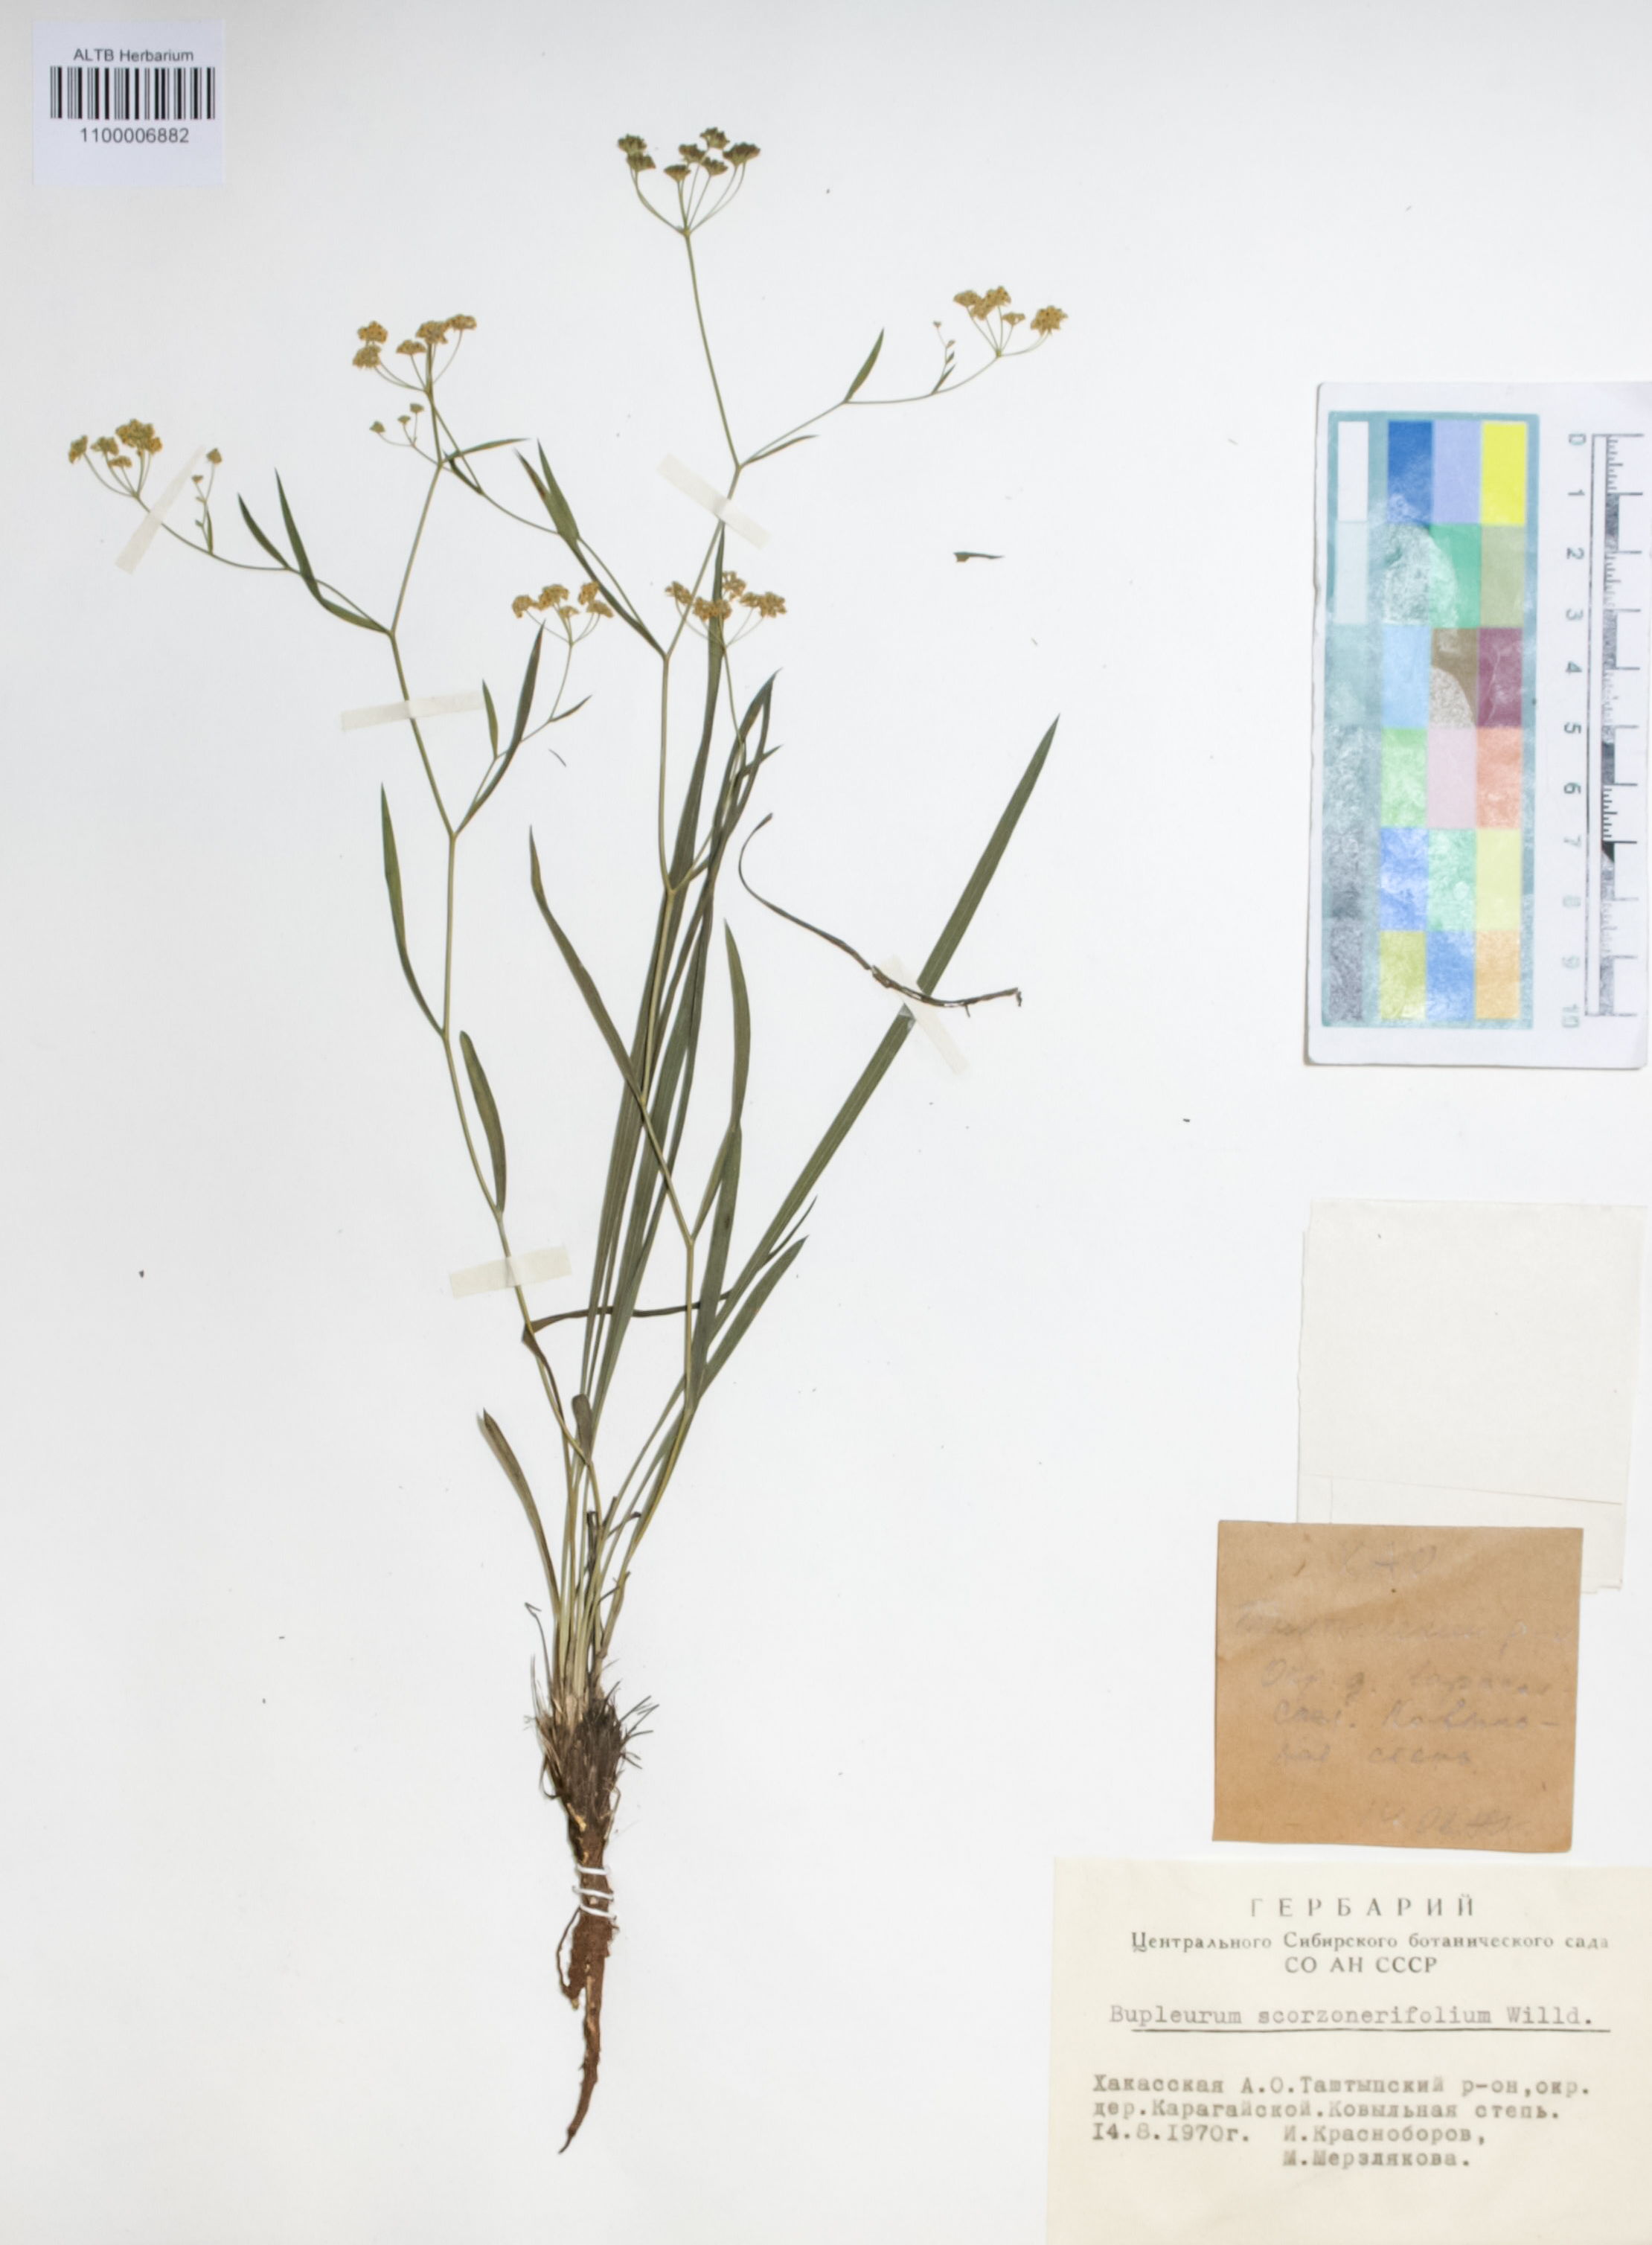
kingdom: Plantae
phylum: Tracheophyta
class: Magnoliopsida
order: Apiales
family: Apiaceae
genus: Bupleurum
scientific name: Bupleurum scorzonerifolium
